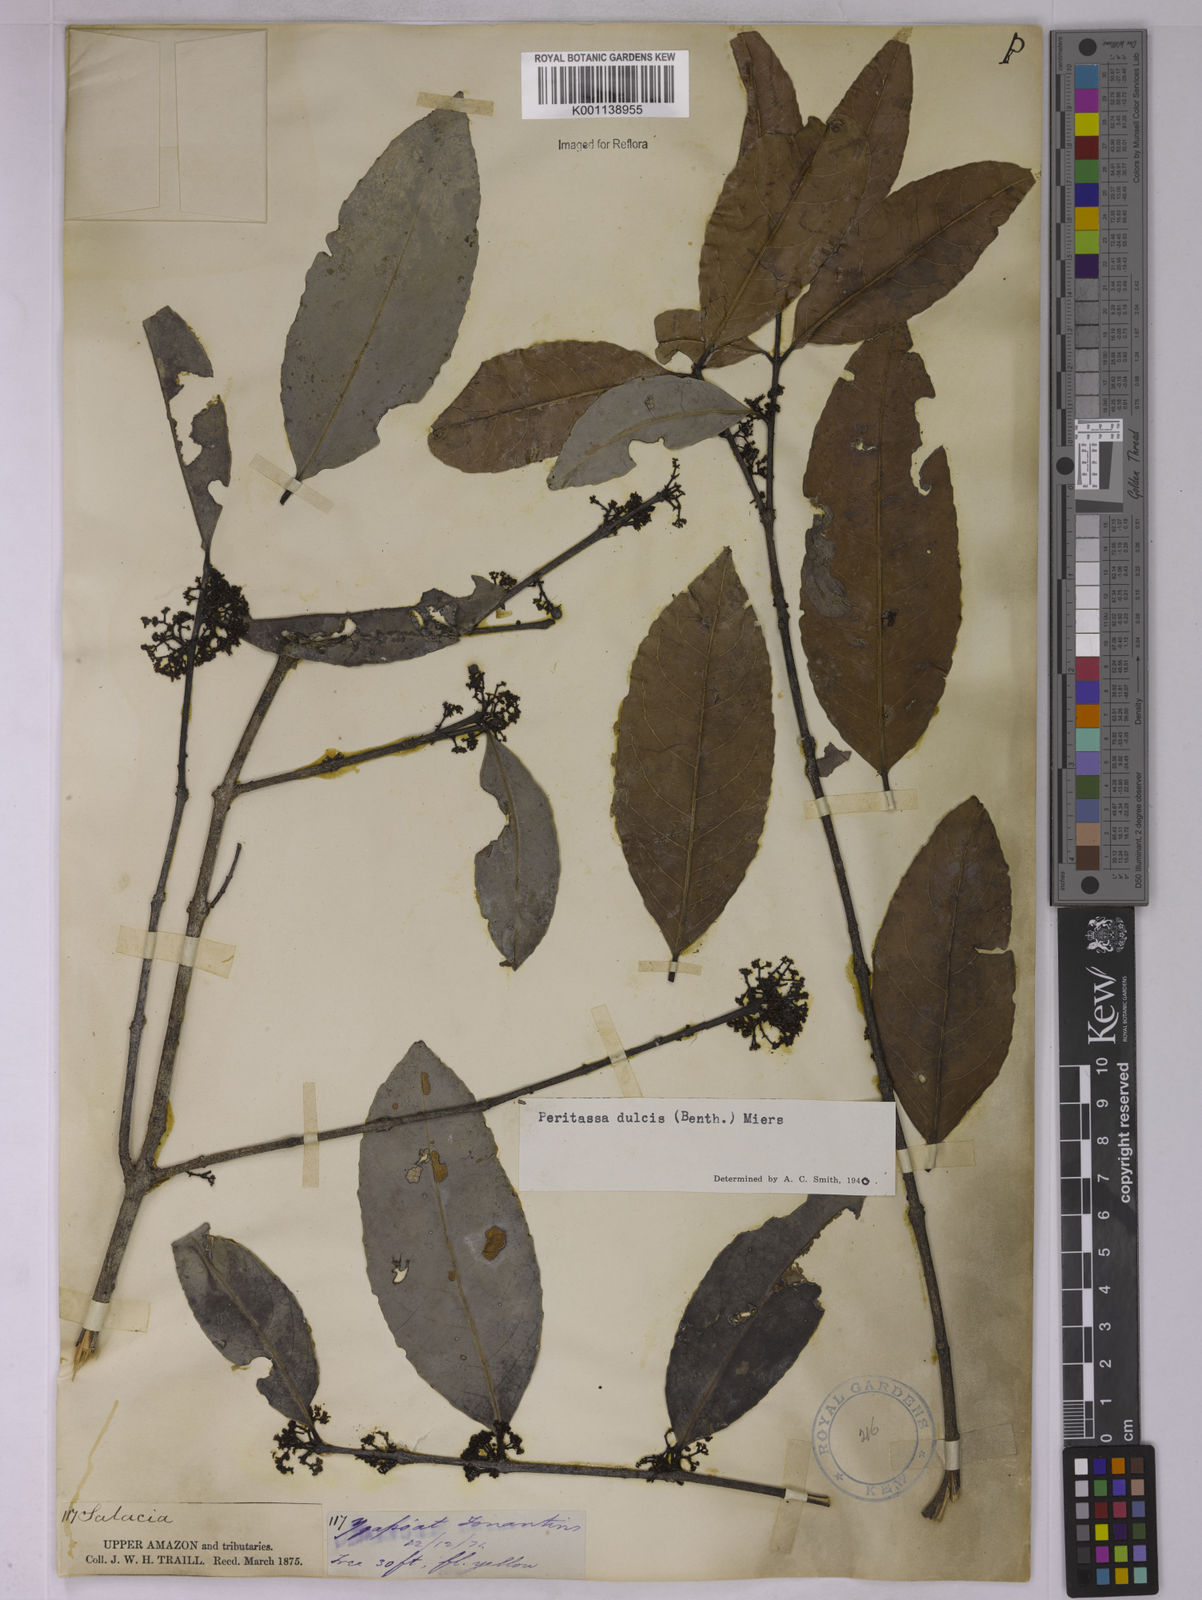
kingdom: Plantae
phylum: Tracheophyta
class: Magnoliopsida
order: Celastrales
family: Celastraceae
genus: Peritassa
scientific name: Peritassa dulcis
